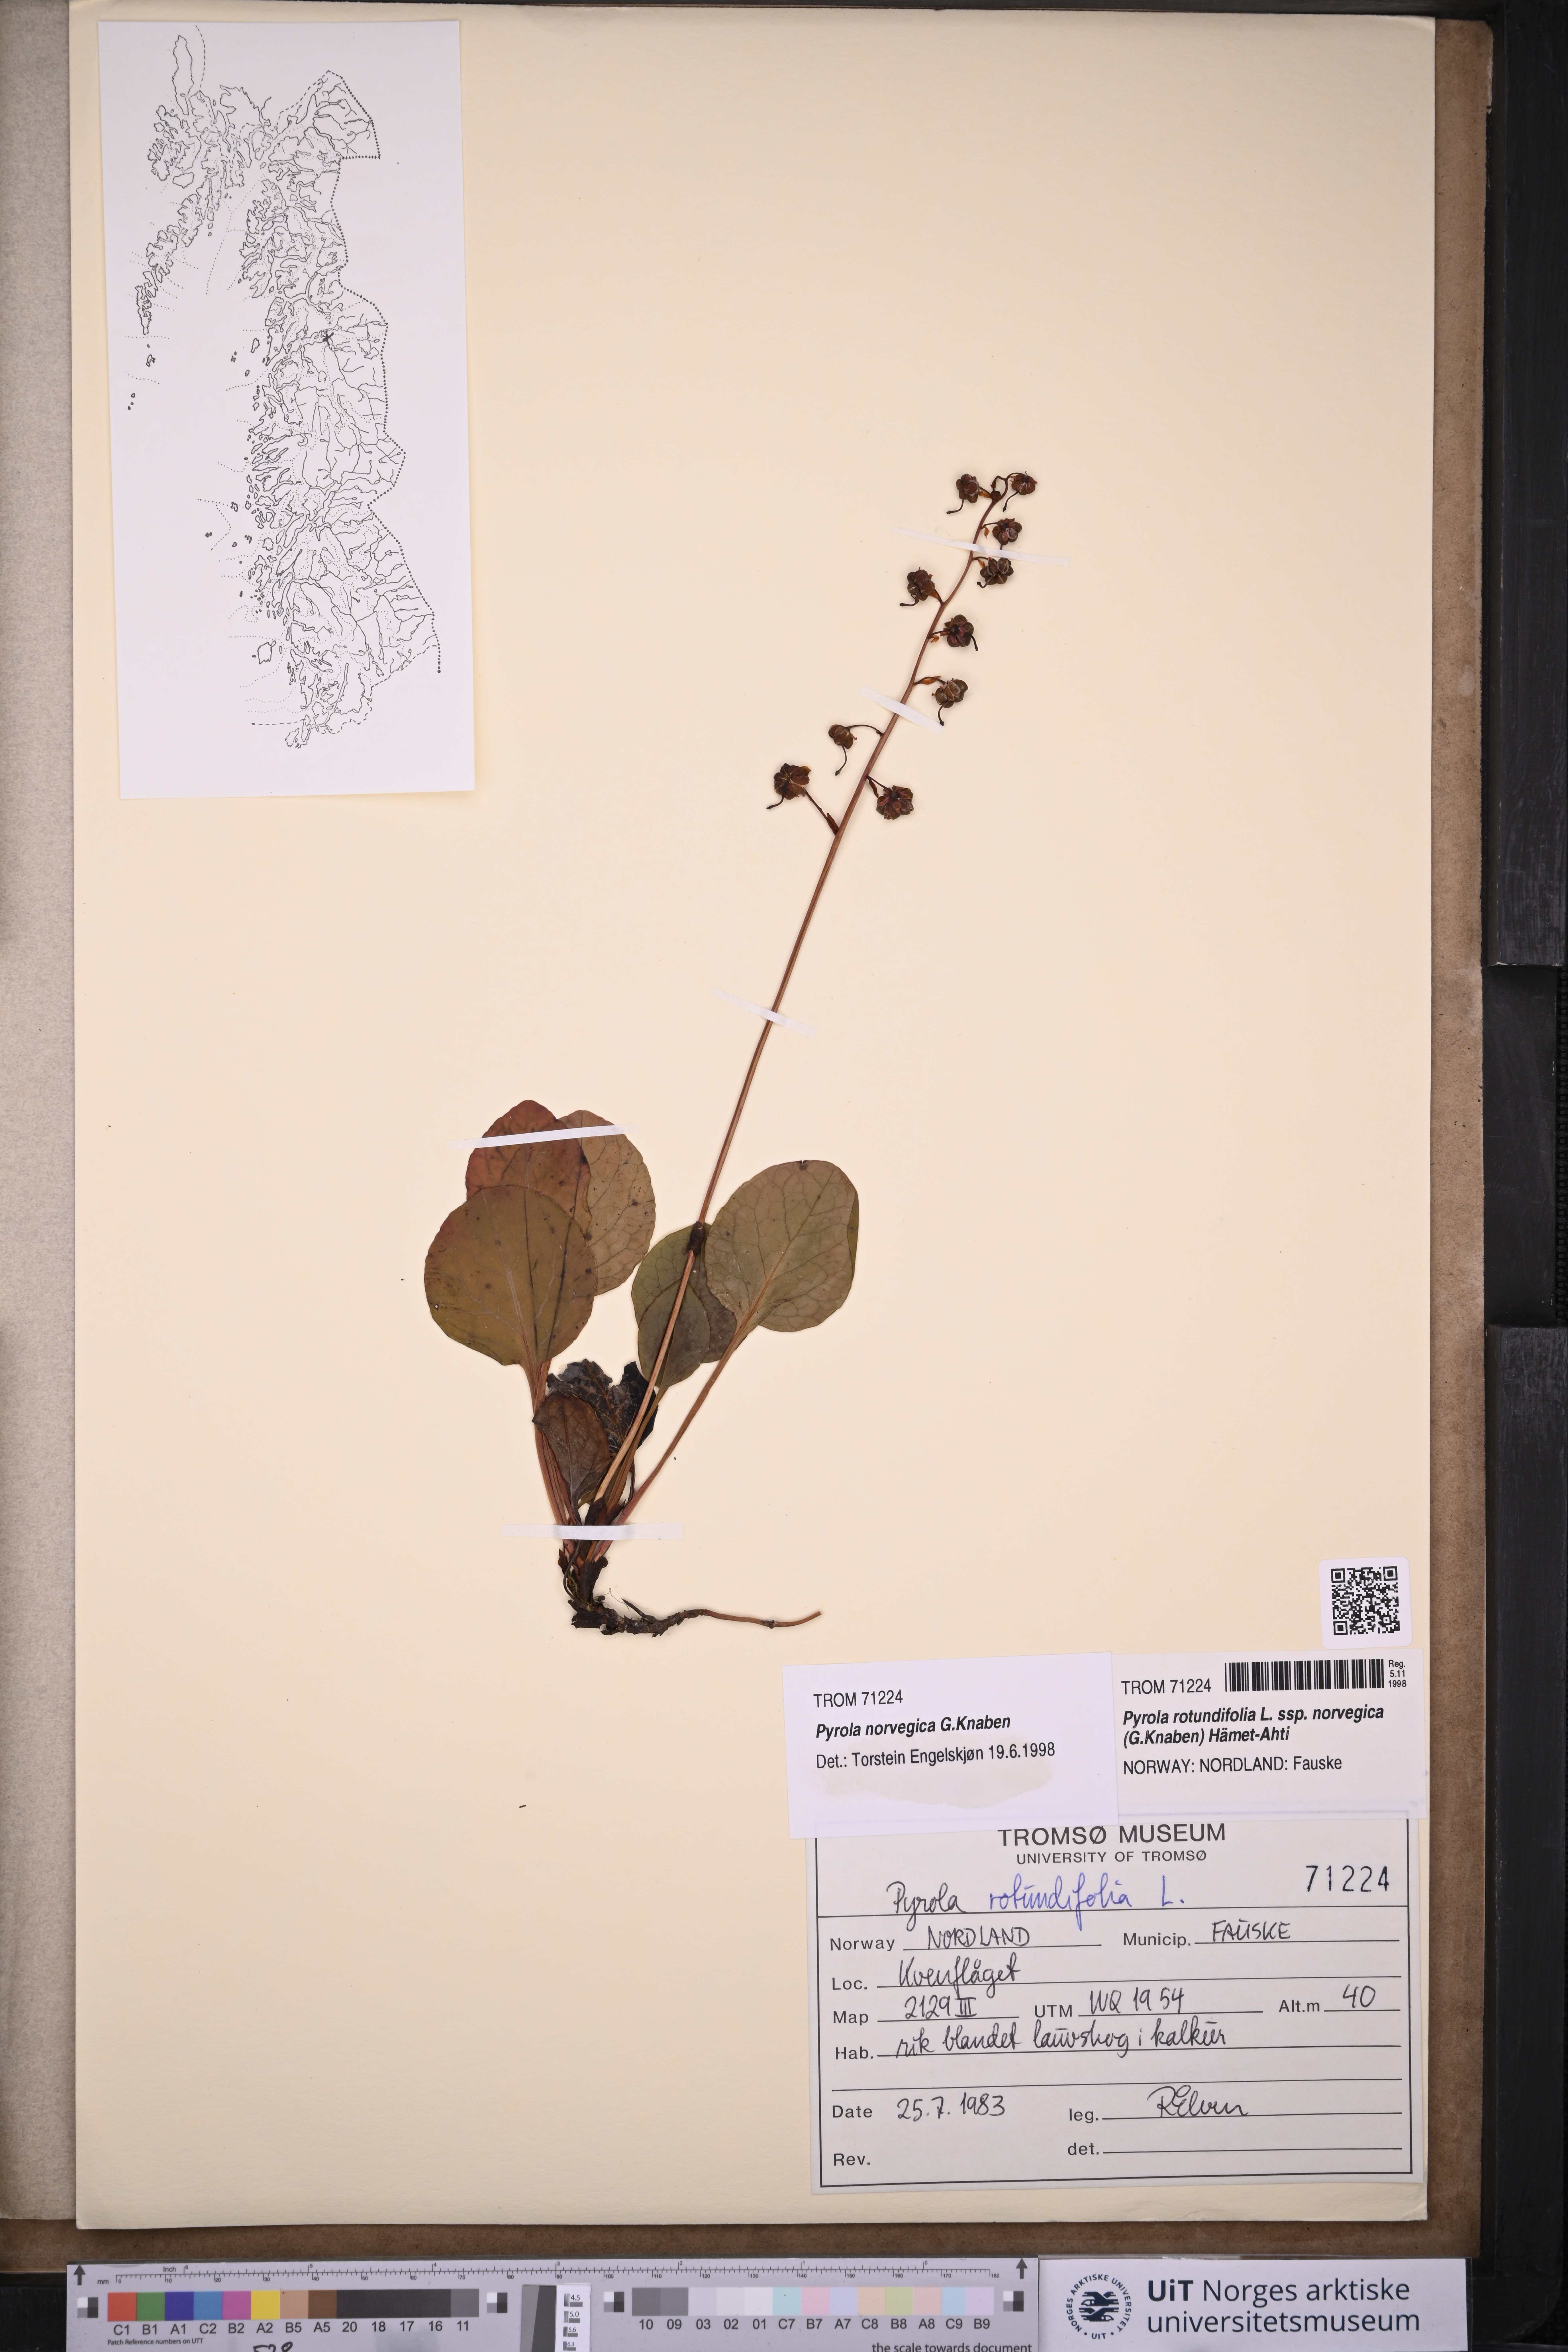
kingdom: Plantae
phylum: Tracheophyta
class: Magnoliopsida
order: Ericales
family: Ericaceae
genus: Pyrola
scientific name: Pyrola rotundifolia
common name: Round-leaved wintergreen
